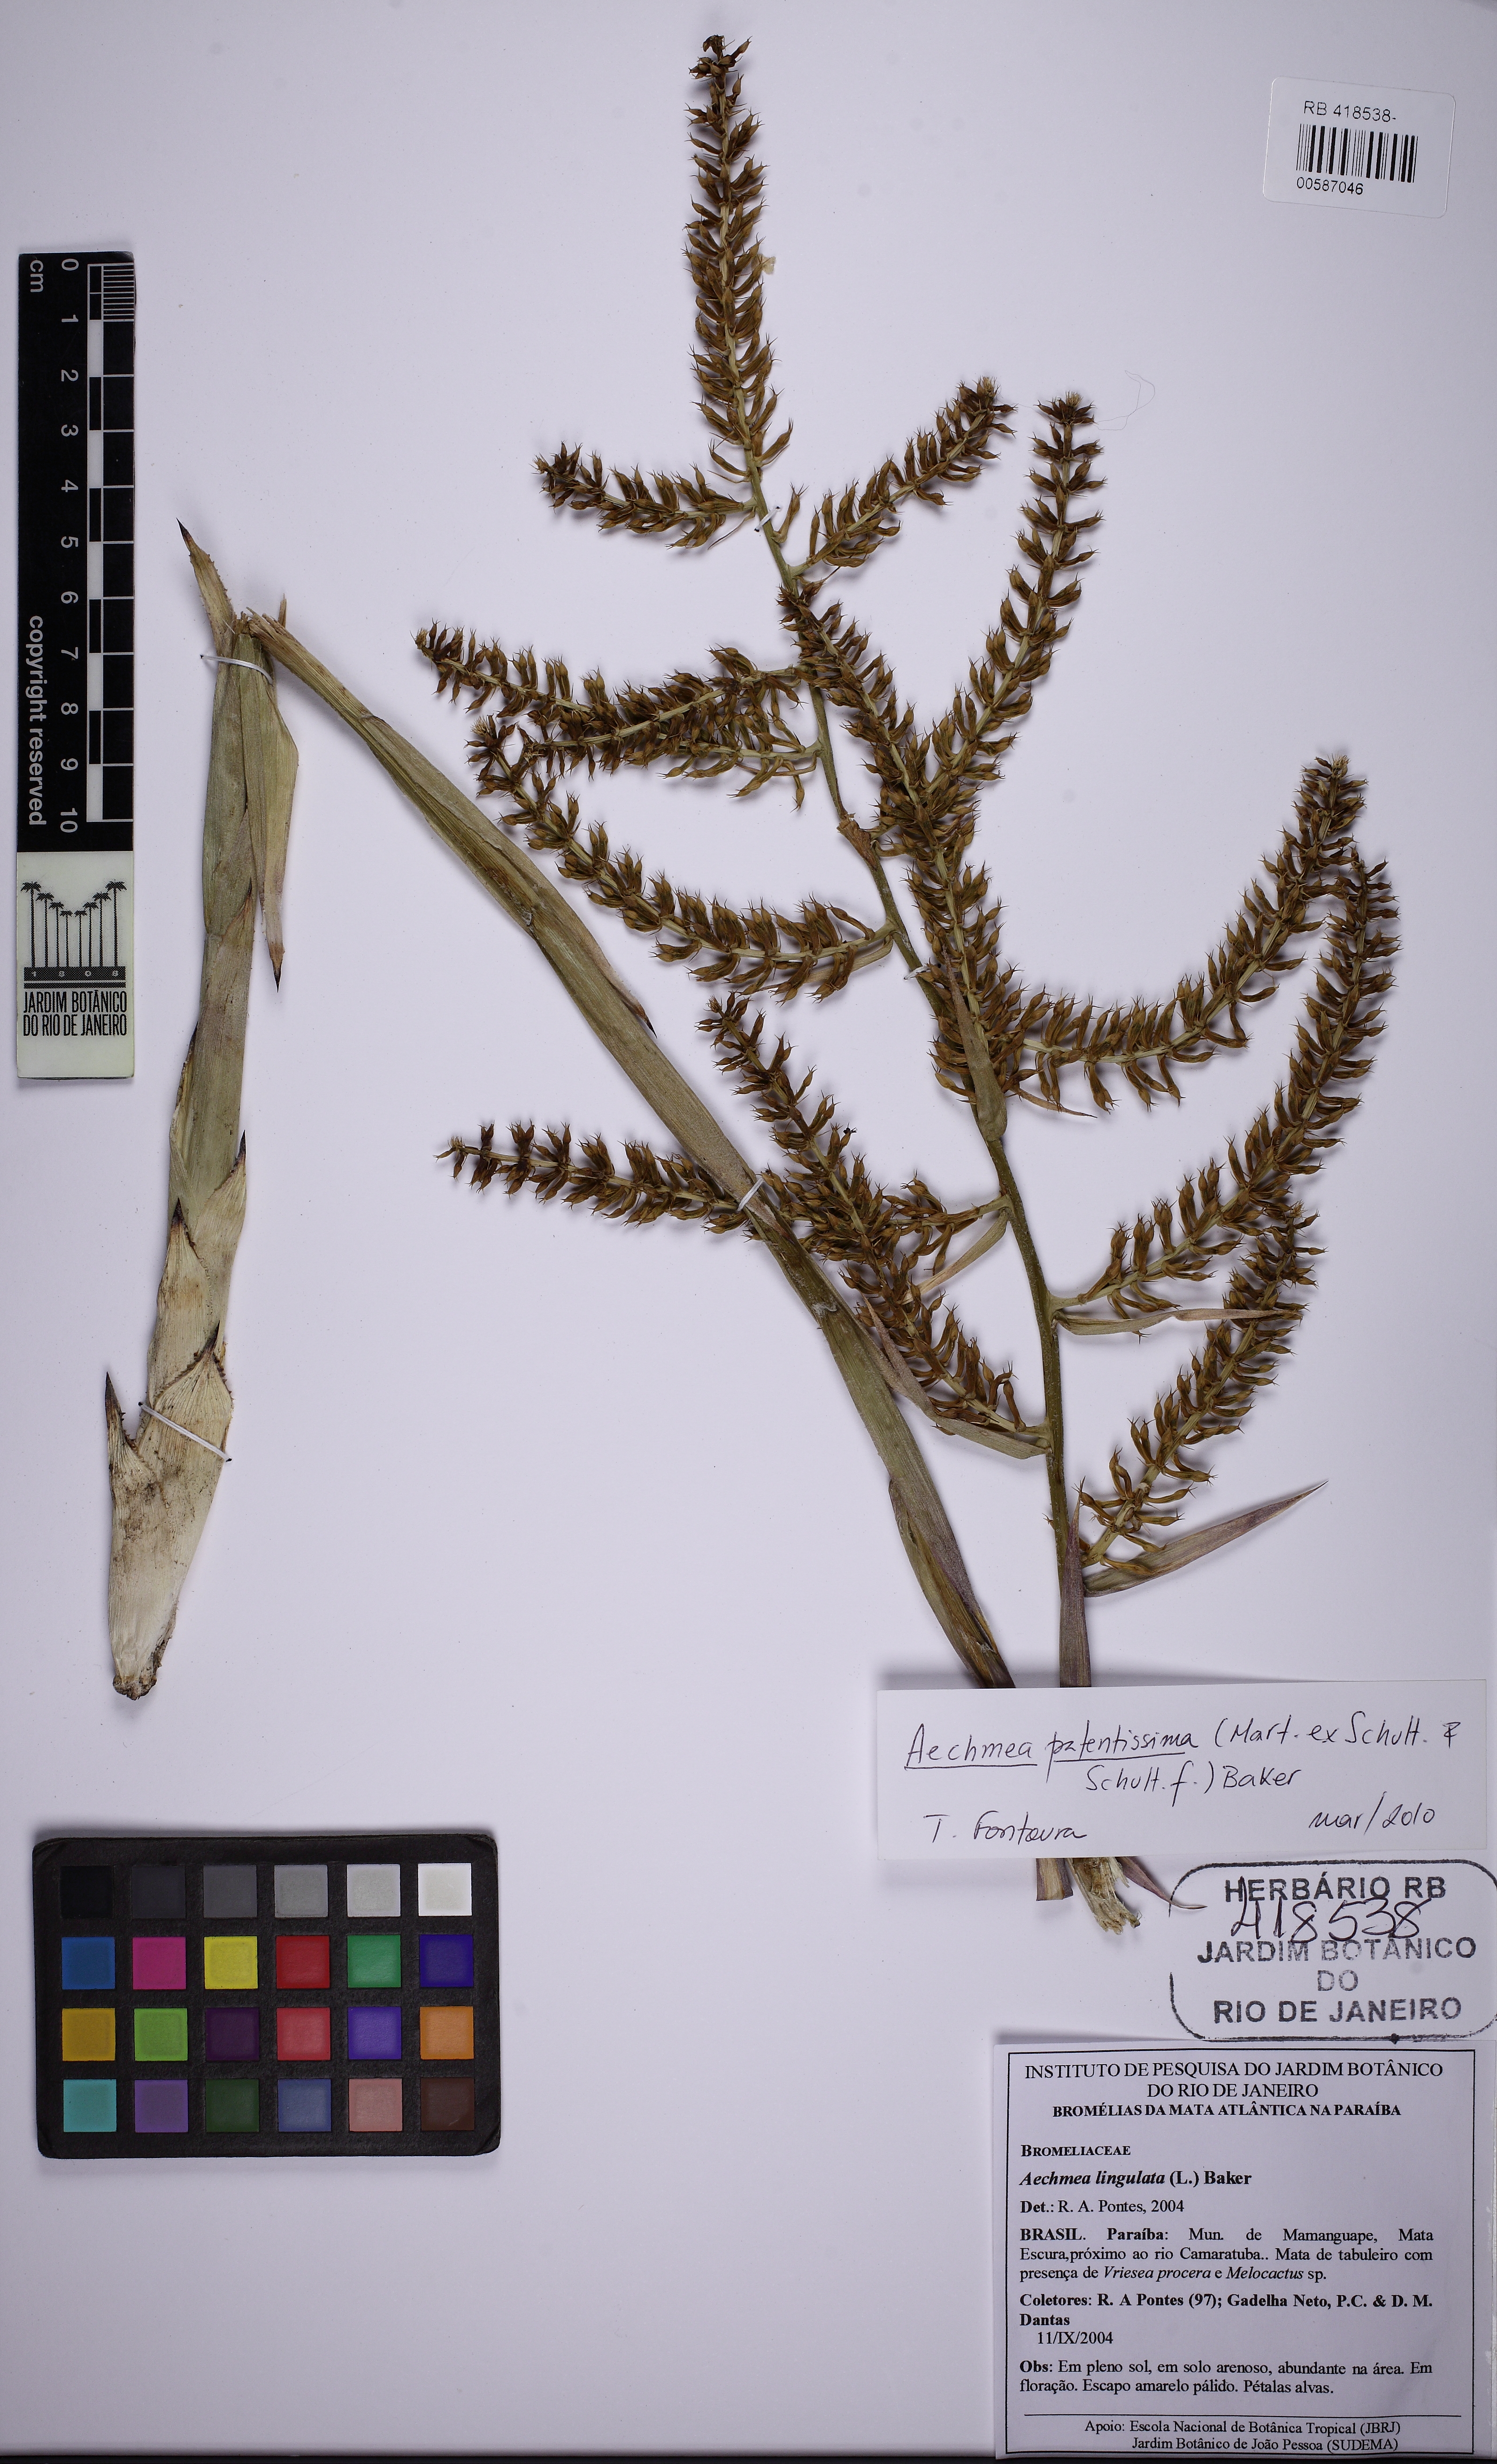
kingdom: Plantae
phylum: Tracheophyta
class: Liliopsida
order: Poales
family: Bromeliaceae
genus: Wittmackia
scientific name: Wittmackia patentissima
